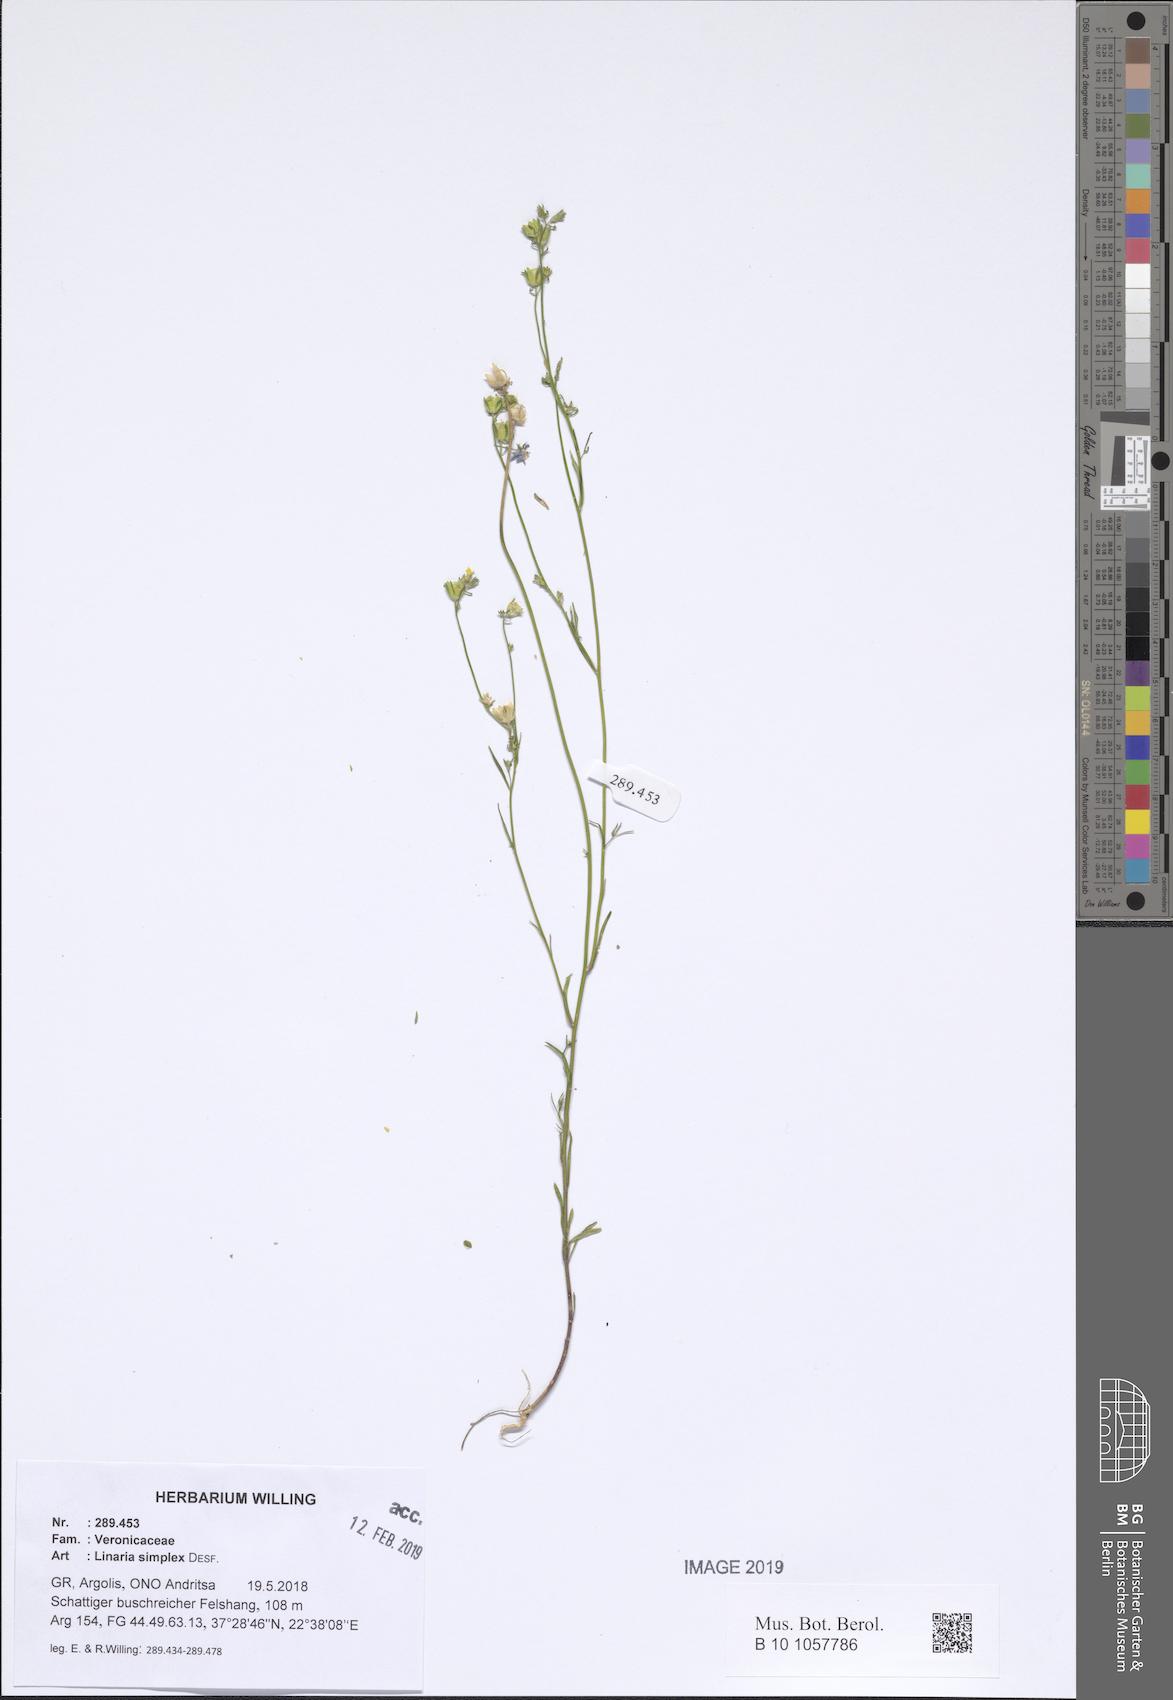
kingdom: Plantae
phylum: Tracheophyta
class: Magnoliopsida
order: Lamiales
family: Plantaginaceae
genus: Linaria
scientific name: Linaria simplex
